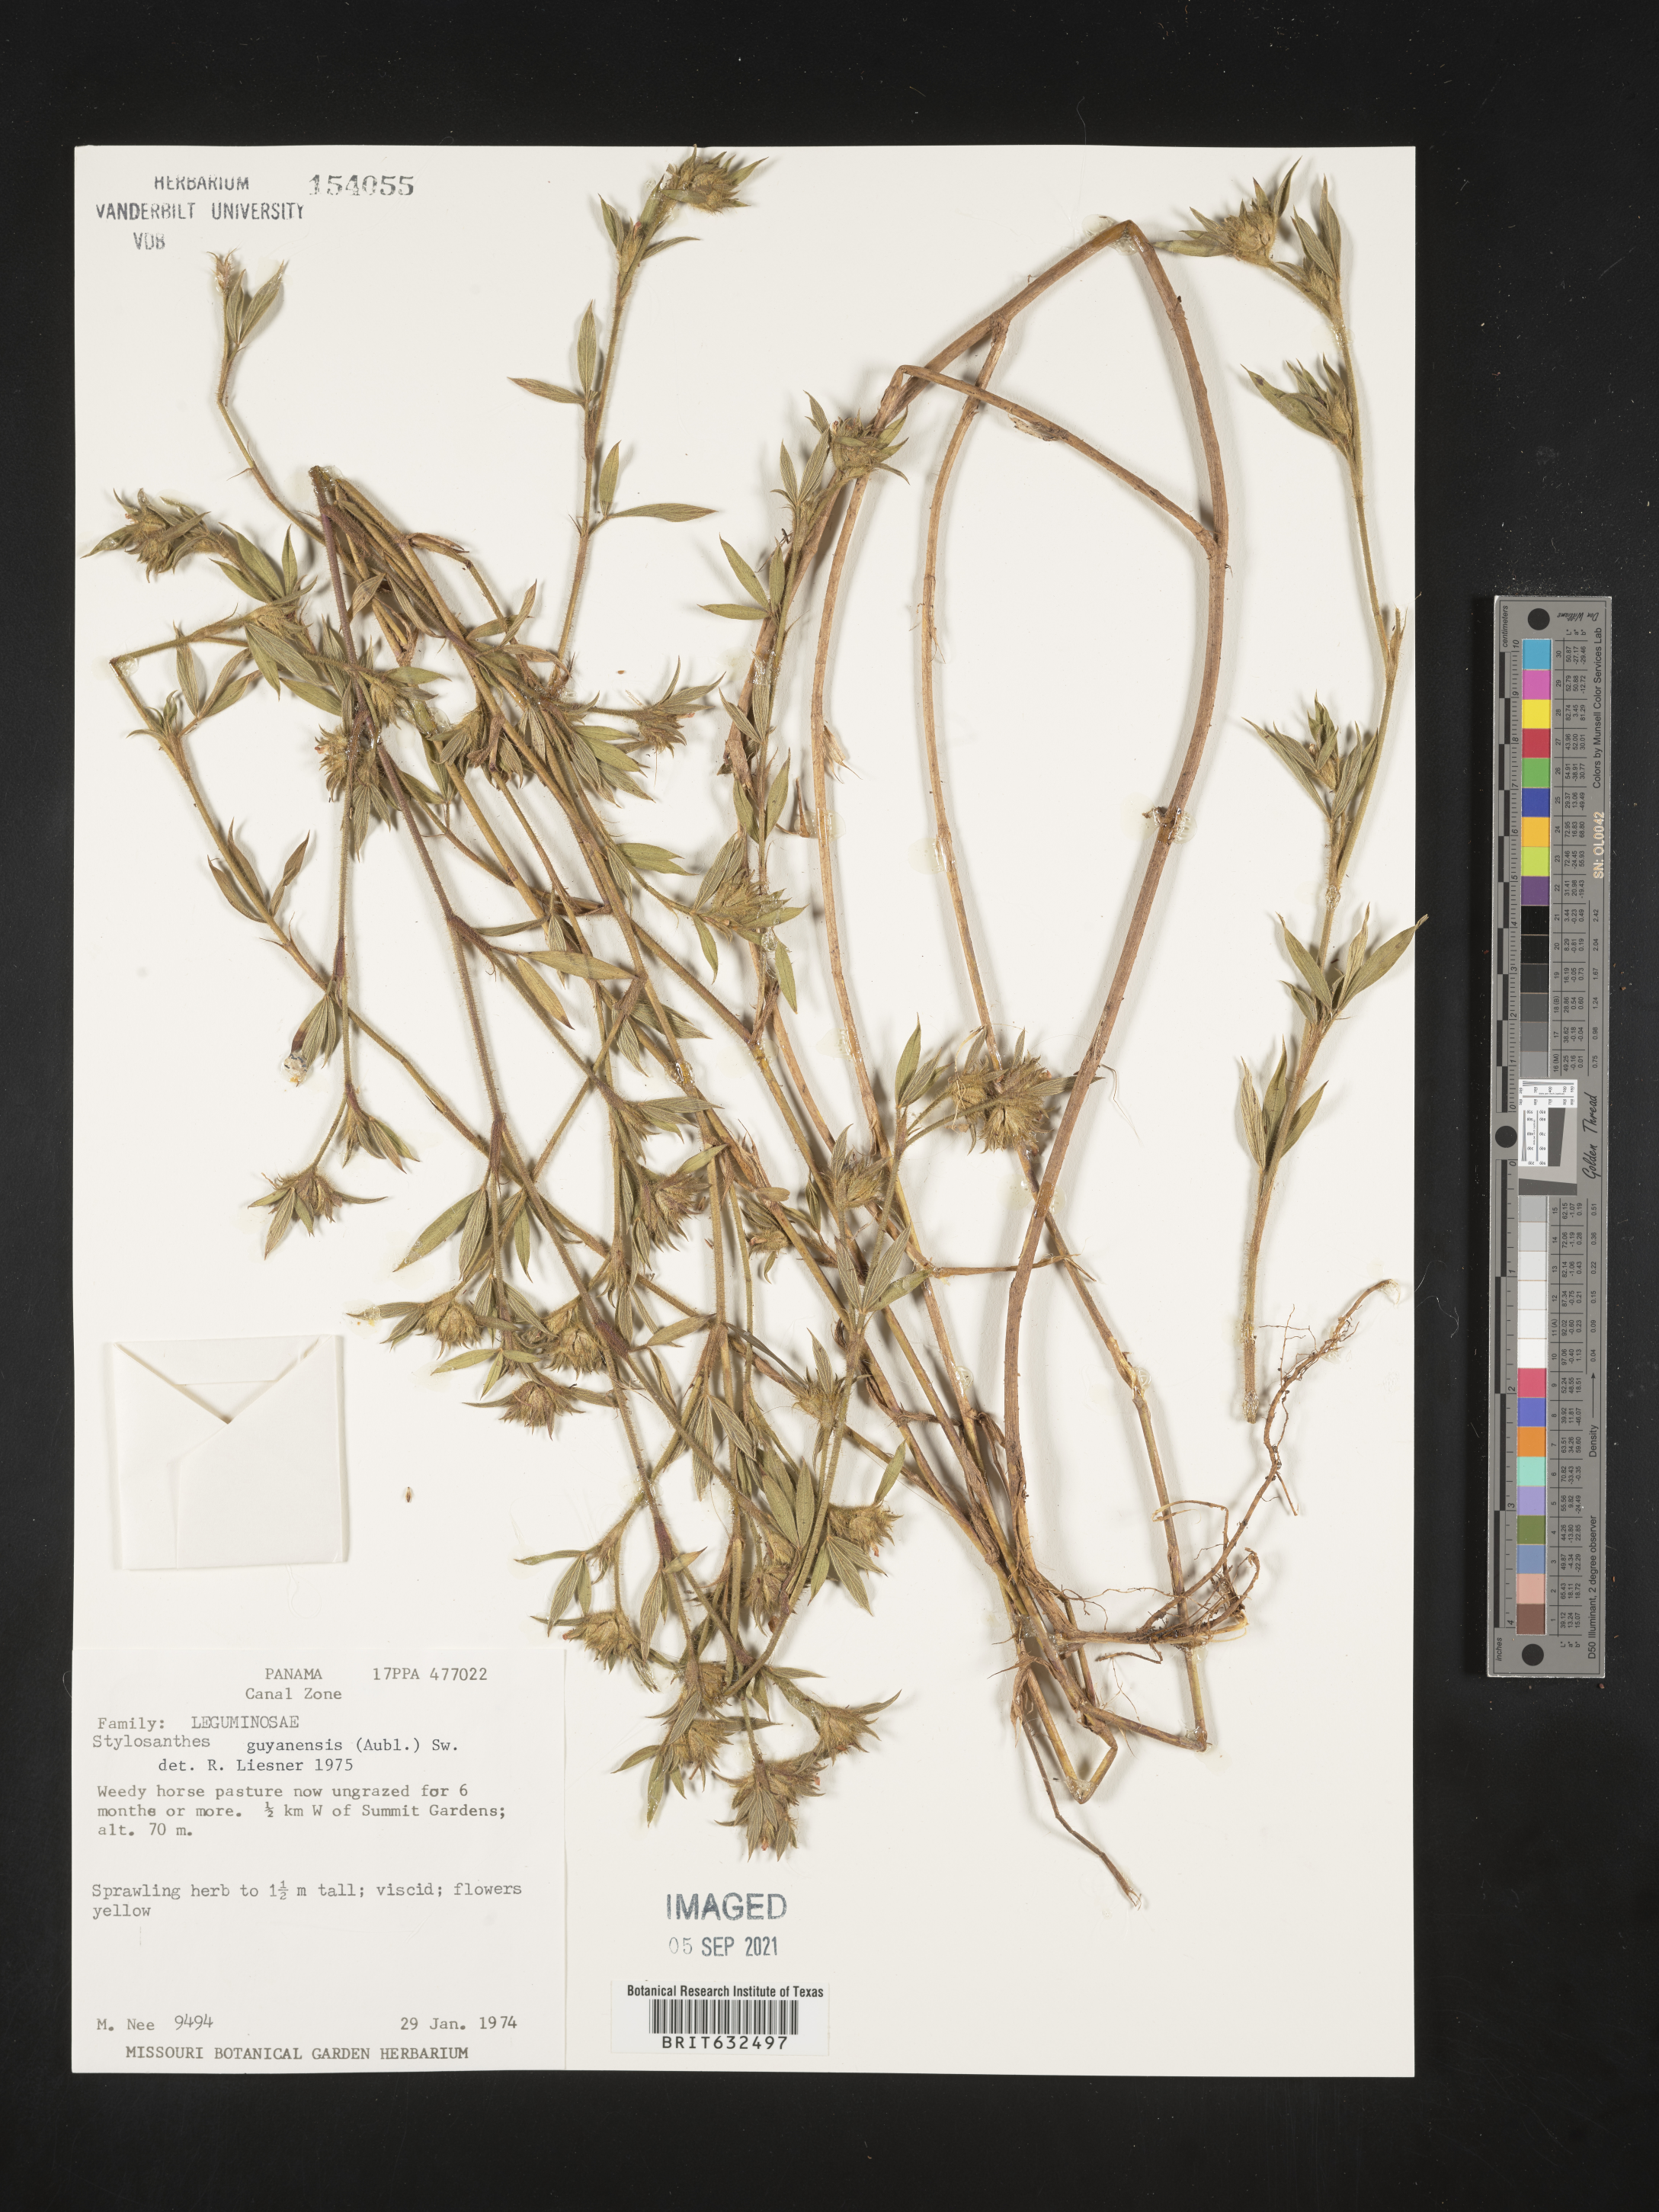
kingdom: Plantae
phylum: Tracheophyta
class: Magnoliopsida
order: Fabales
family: Fabaceae
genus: Stylosanthes
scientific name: Stylosanthes
